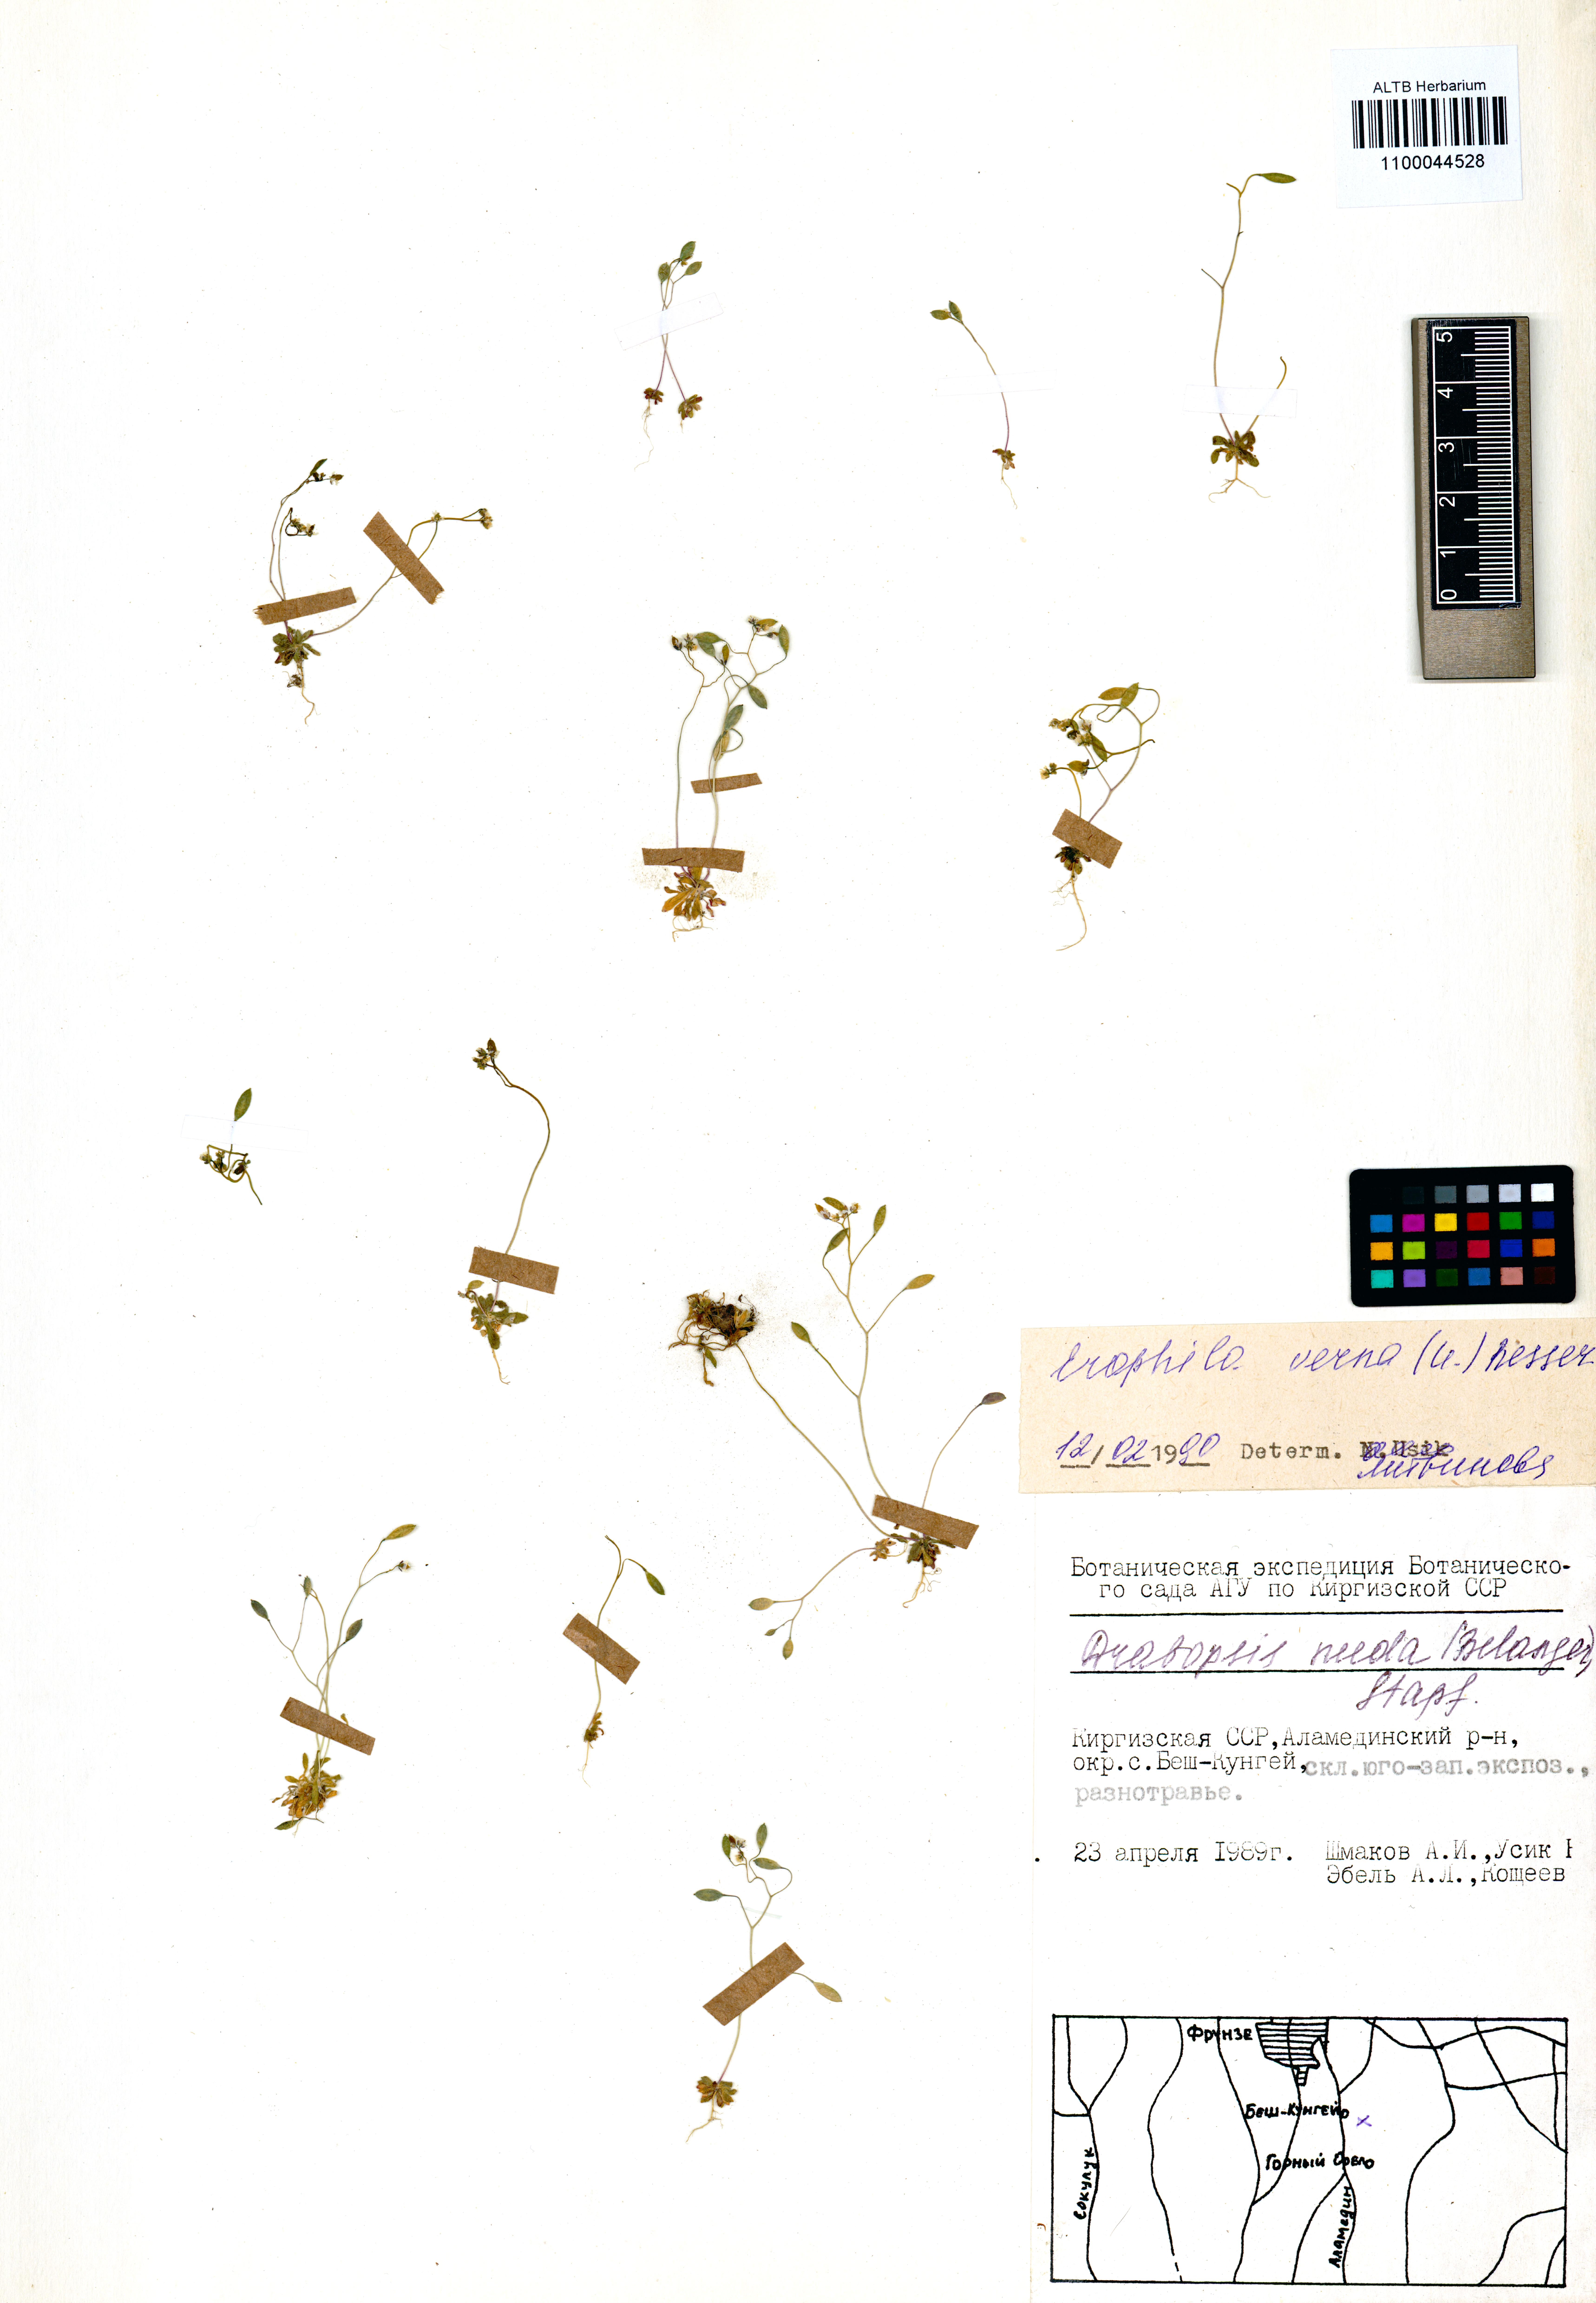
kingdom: Plantae
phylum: Tracheophyta
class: Magnoliopsida
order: Brassicales
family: Brassicaceae
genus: Draba
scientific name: Draba verna
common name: Spring draba
